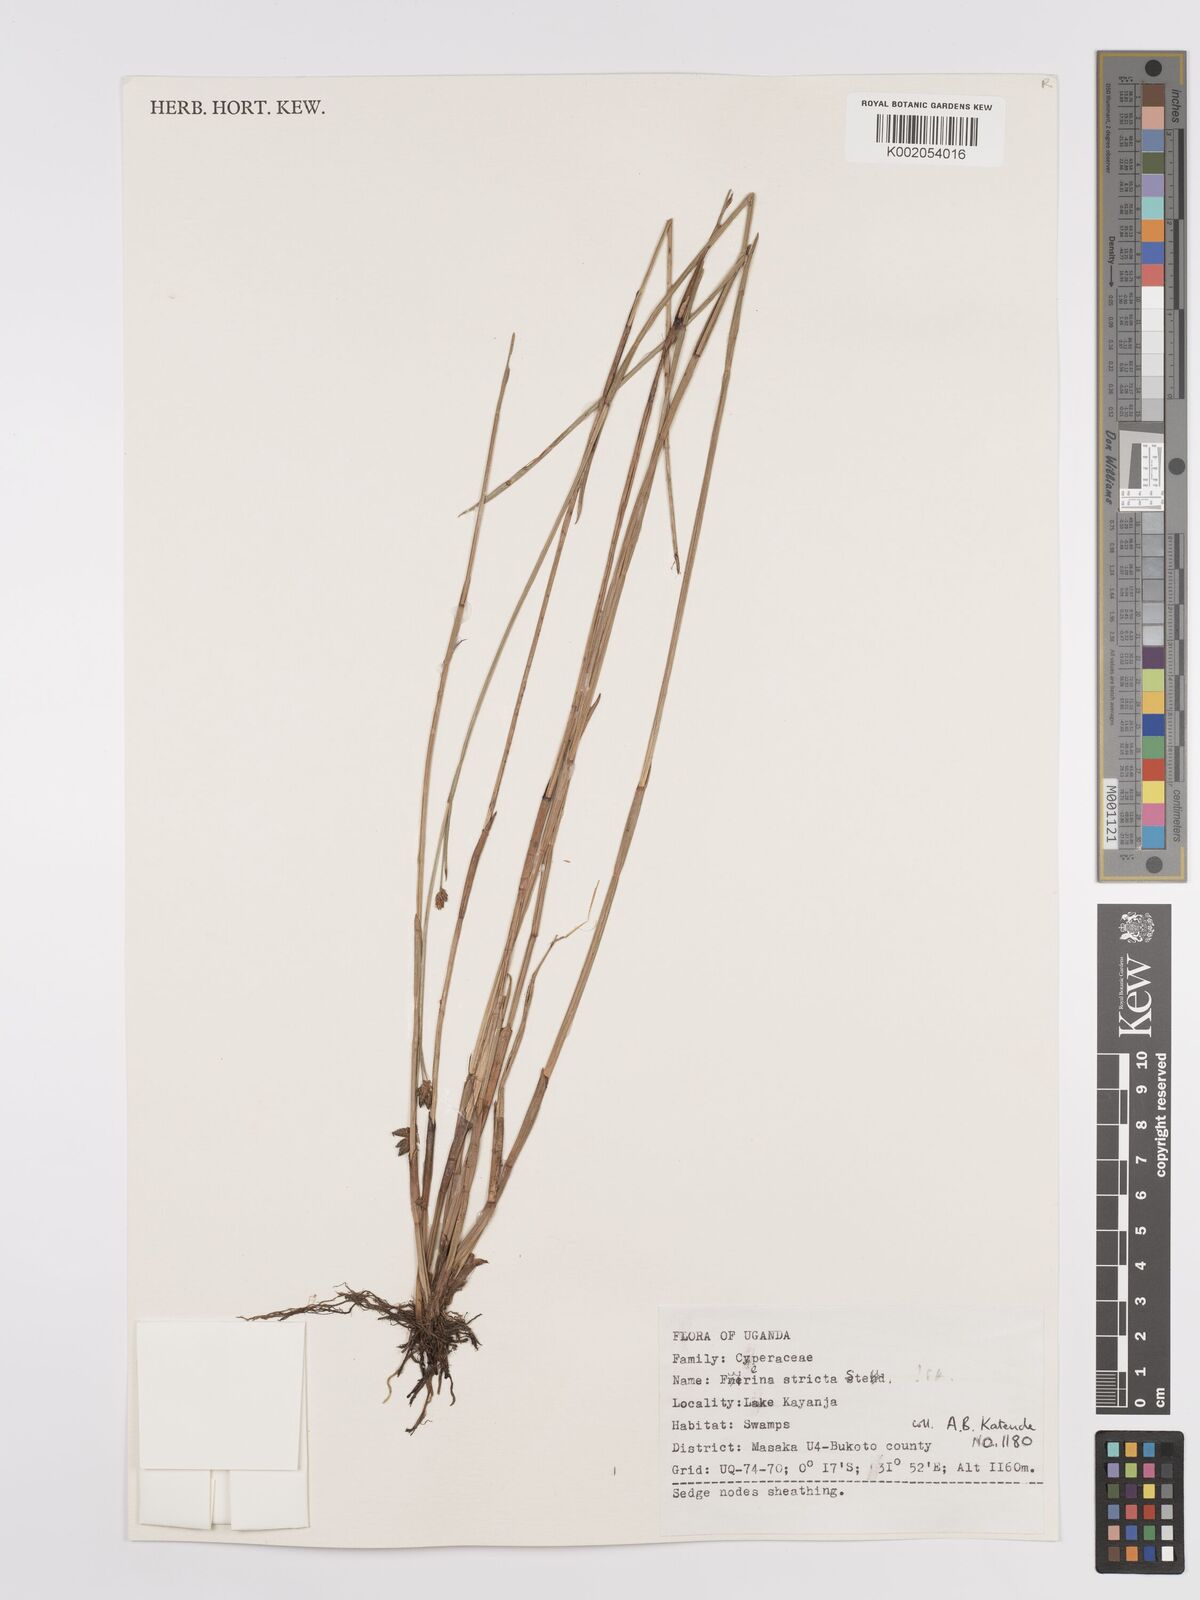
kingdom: Plantae
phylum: Tracheophyta
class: Liliopsida
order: Poales
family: Cyperaceae
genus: Fuirena
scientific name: Fuirena stricta
